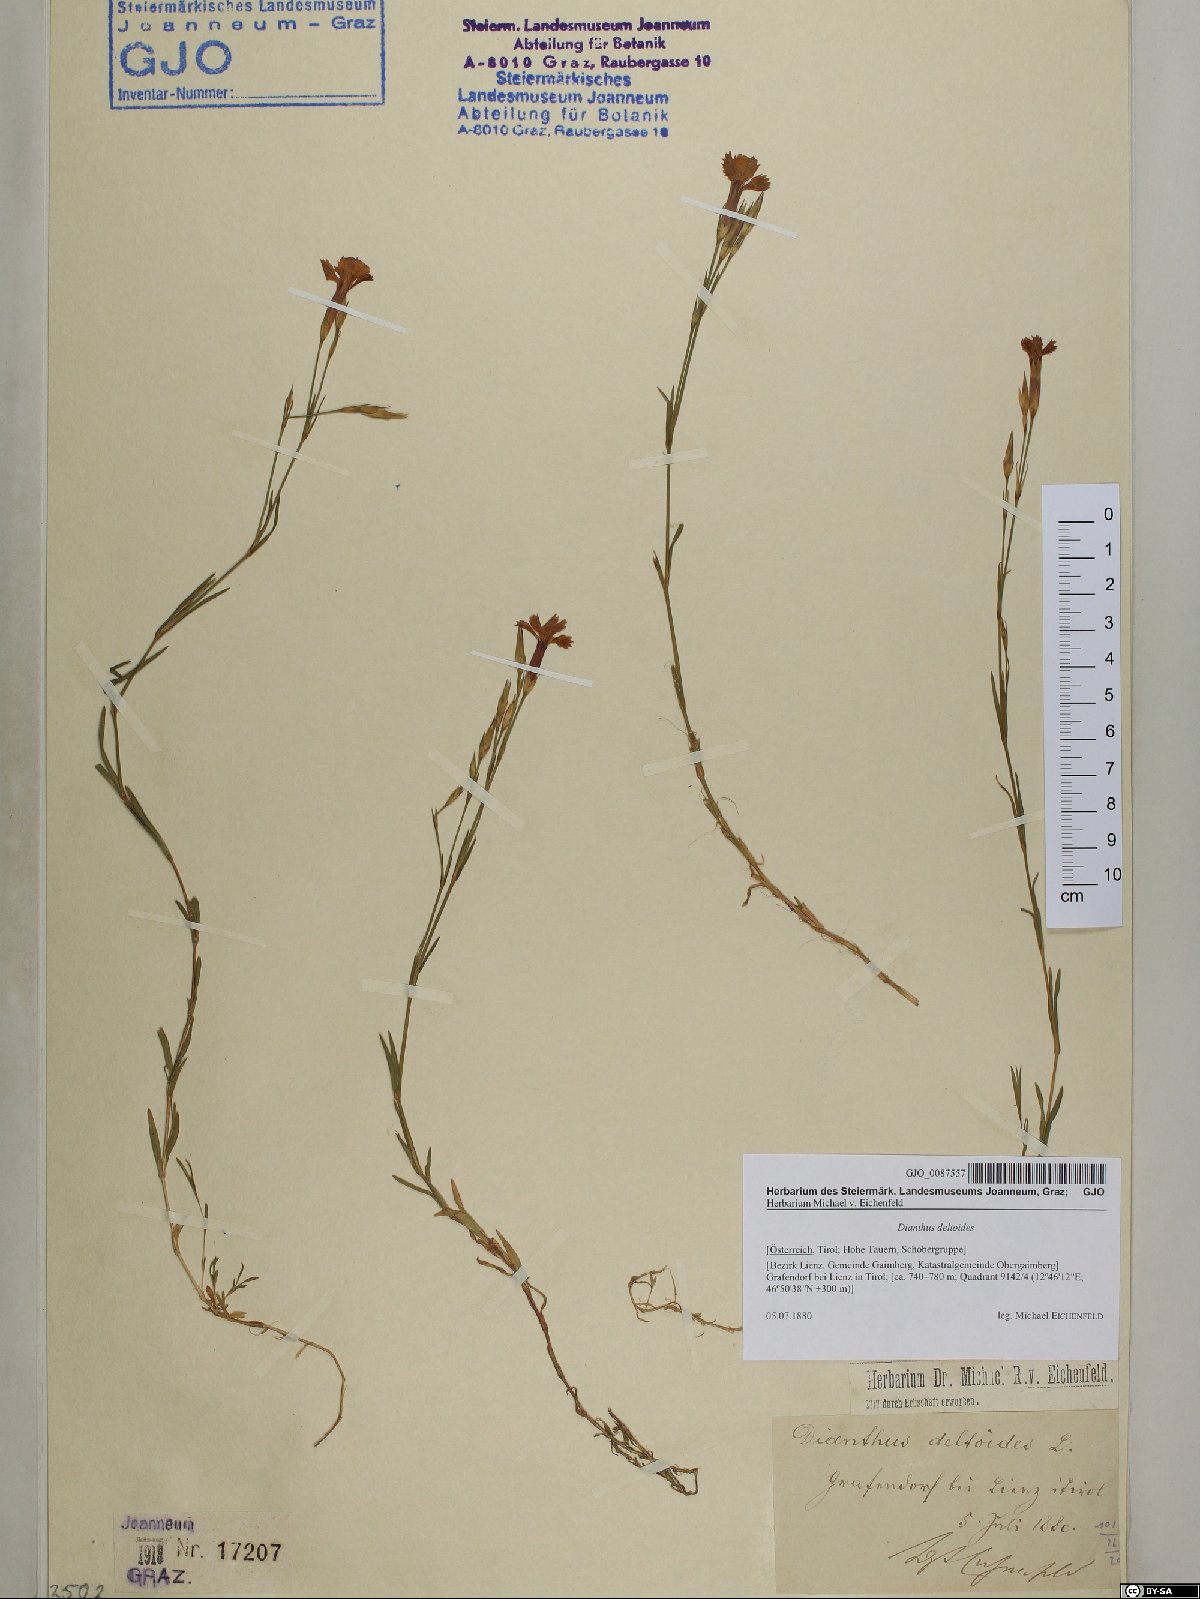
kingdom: Plantae
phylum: Tracheophyta
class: Magnoliopsida
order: Caryophyllales
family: Caryophyllaceae
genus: Dianthus
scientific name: Dianthus deltoides
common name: Maiden pink
